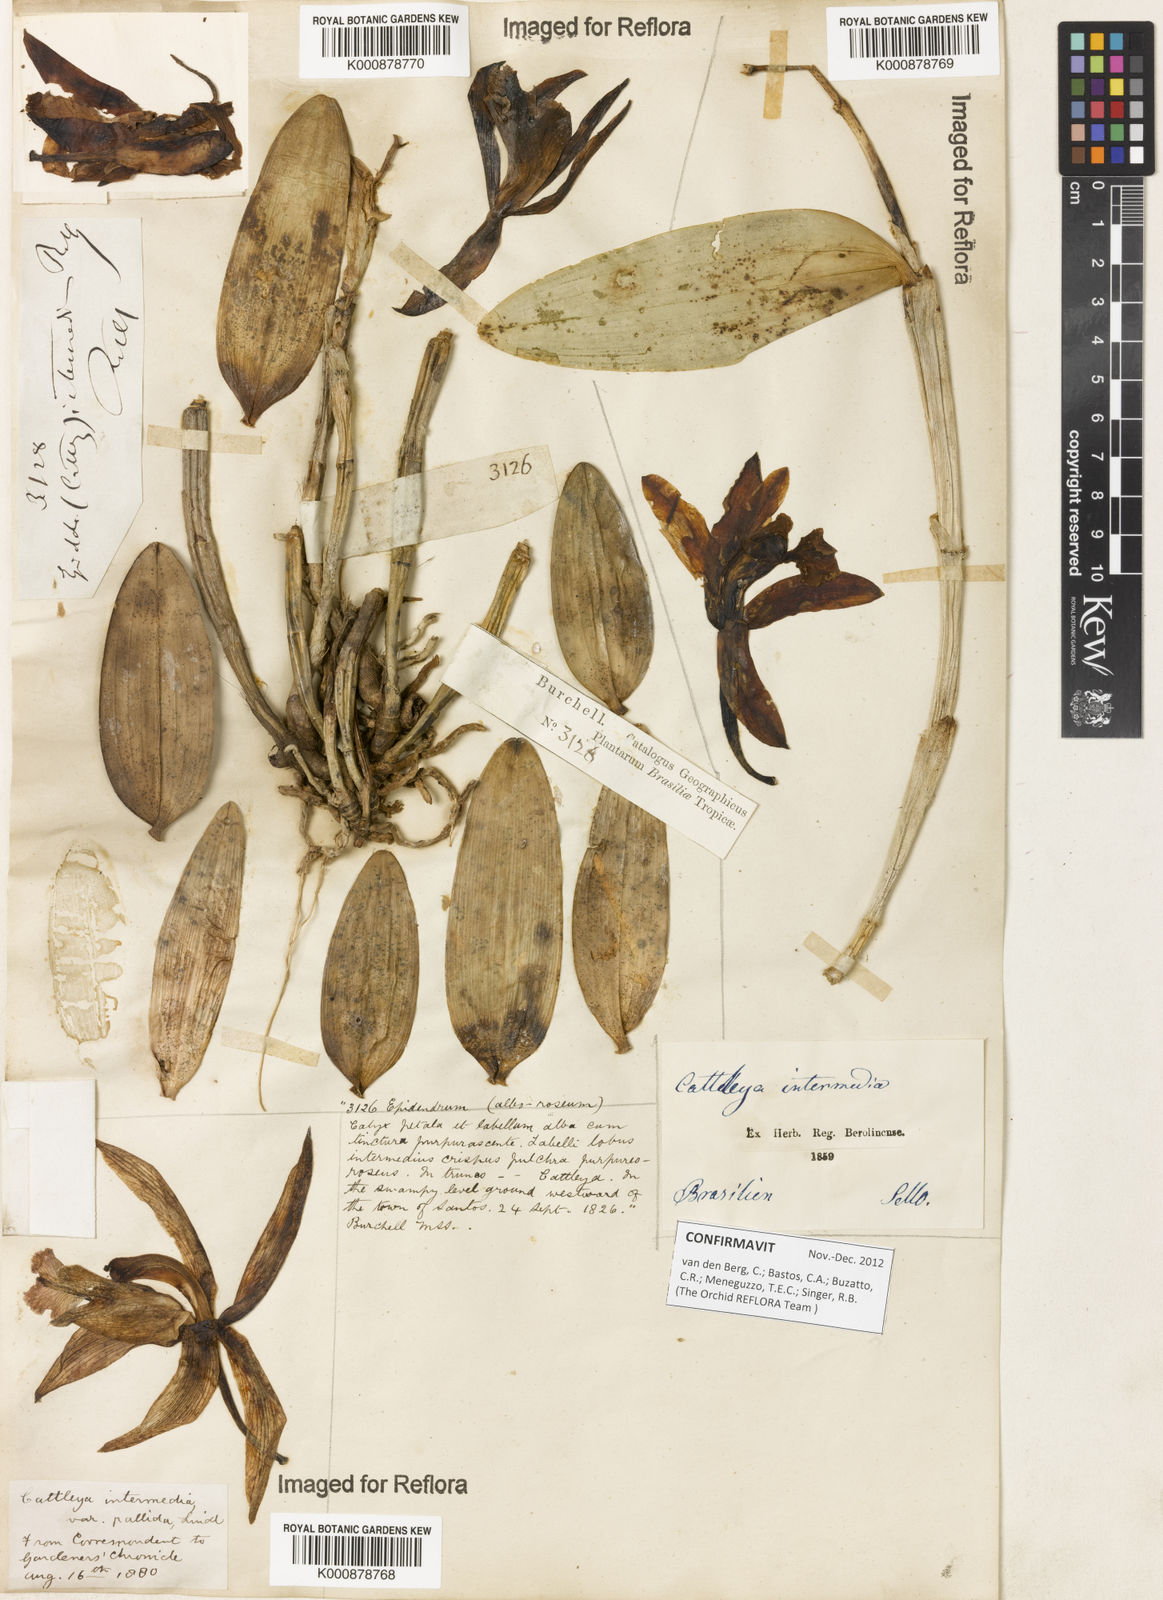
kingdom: Plantae
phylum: Tracheophyta
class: Liliopsida
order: Asparagales
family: Orchidaceae
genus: Cattleya
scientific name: Cattleya intermedia
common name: Intermediate cattleya
